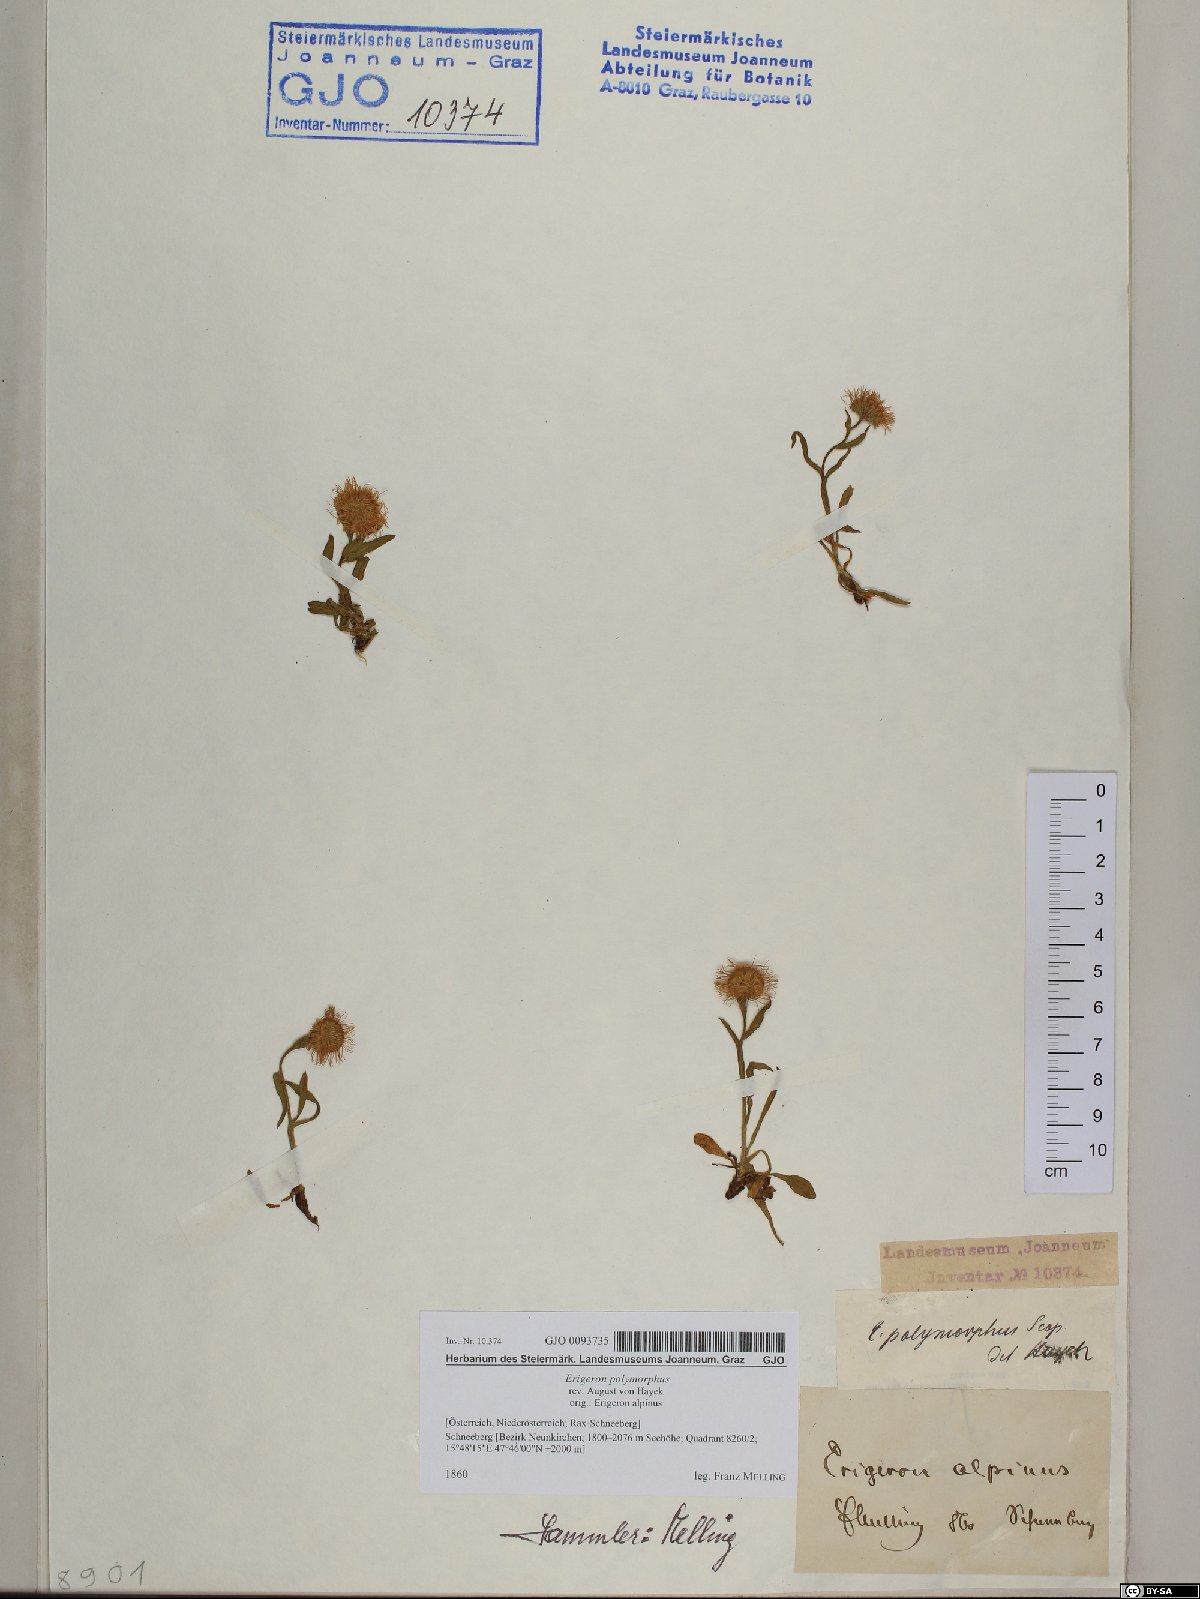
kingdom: Plantae
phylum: Tracheophyta
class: Magnoliopsida
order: Asterales
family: Asteraceae
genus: Erigeron
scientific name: Erigeron alpinus
